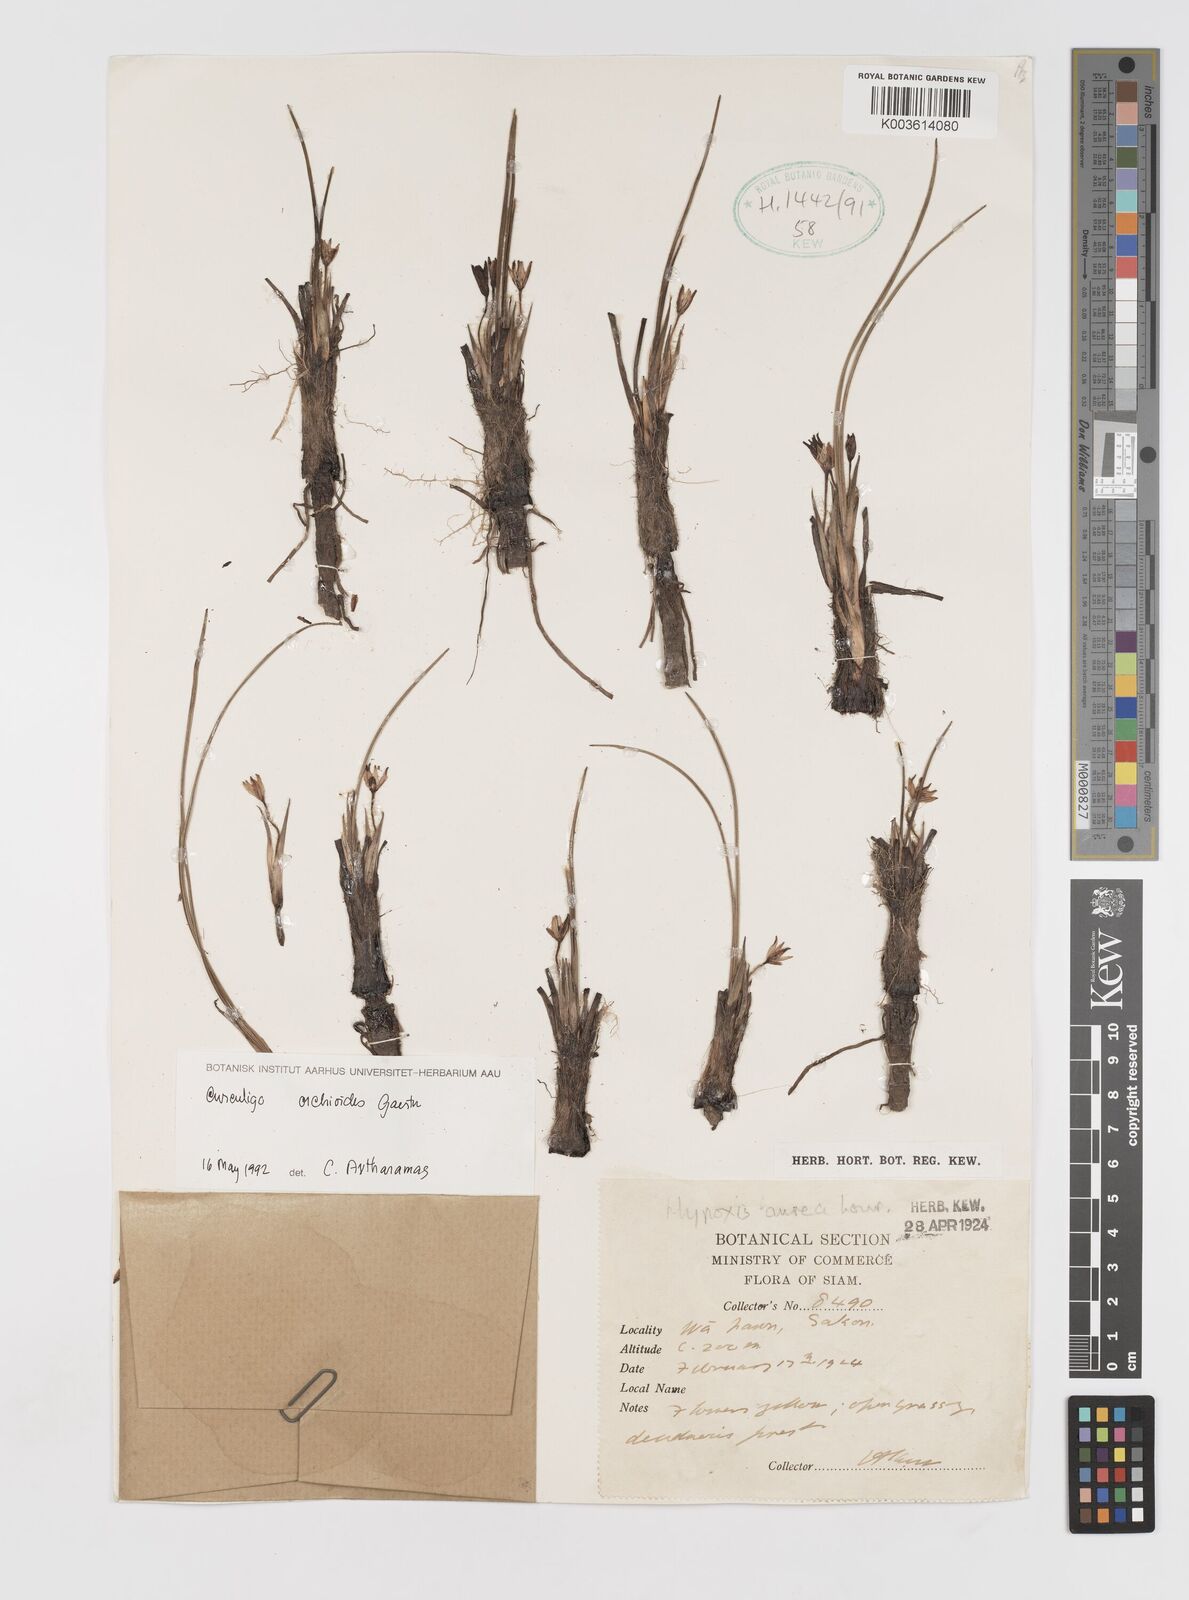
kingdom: Plantae
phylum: Tracheophyta
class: Liliopsida
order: Asparagales
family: Hypoxidaceae
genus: Curculigo
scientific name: Curculigo orchioides
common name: Golden eye-grass
